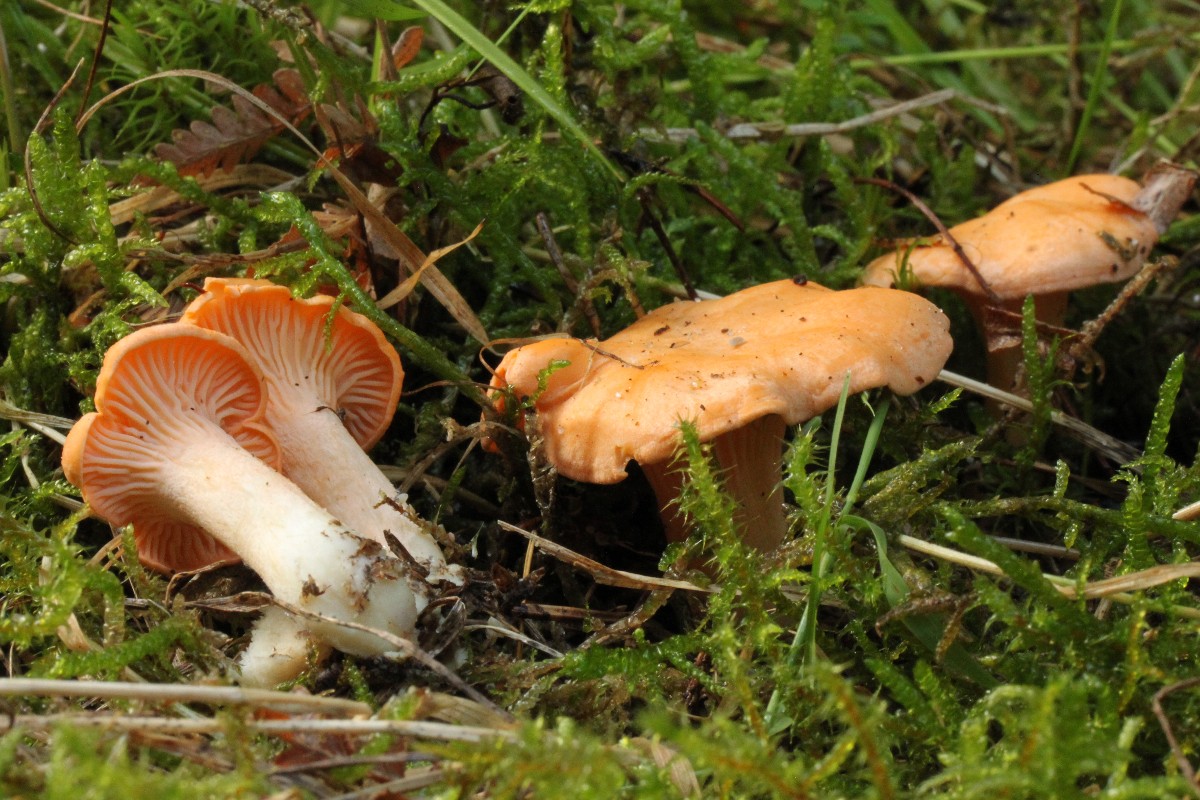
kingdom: Fungi
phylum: Basidiomycota
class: Agaricomycetes
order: Cantharellales
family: Hydnaceae
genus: Cantharellus
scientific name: Cantharellus cibarius
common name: almindelig kantarel
